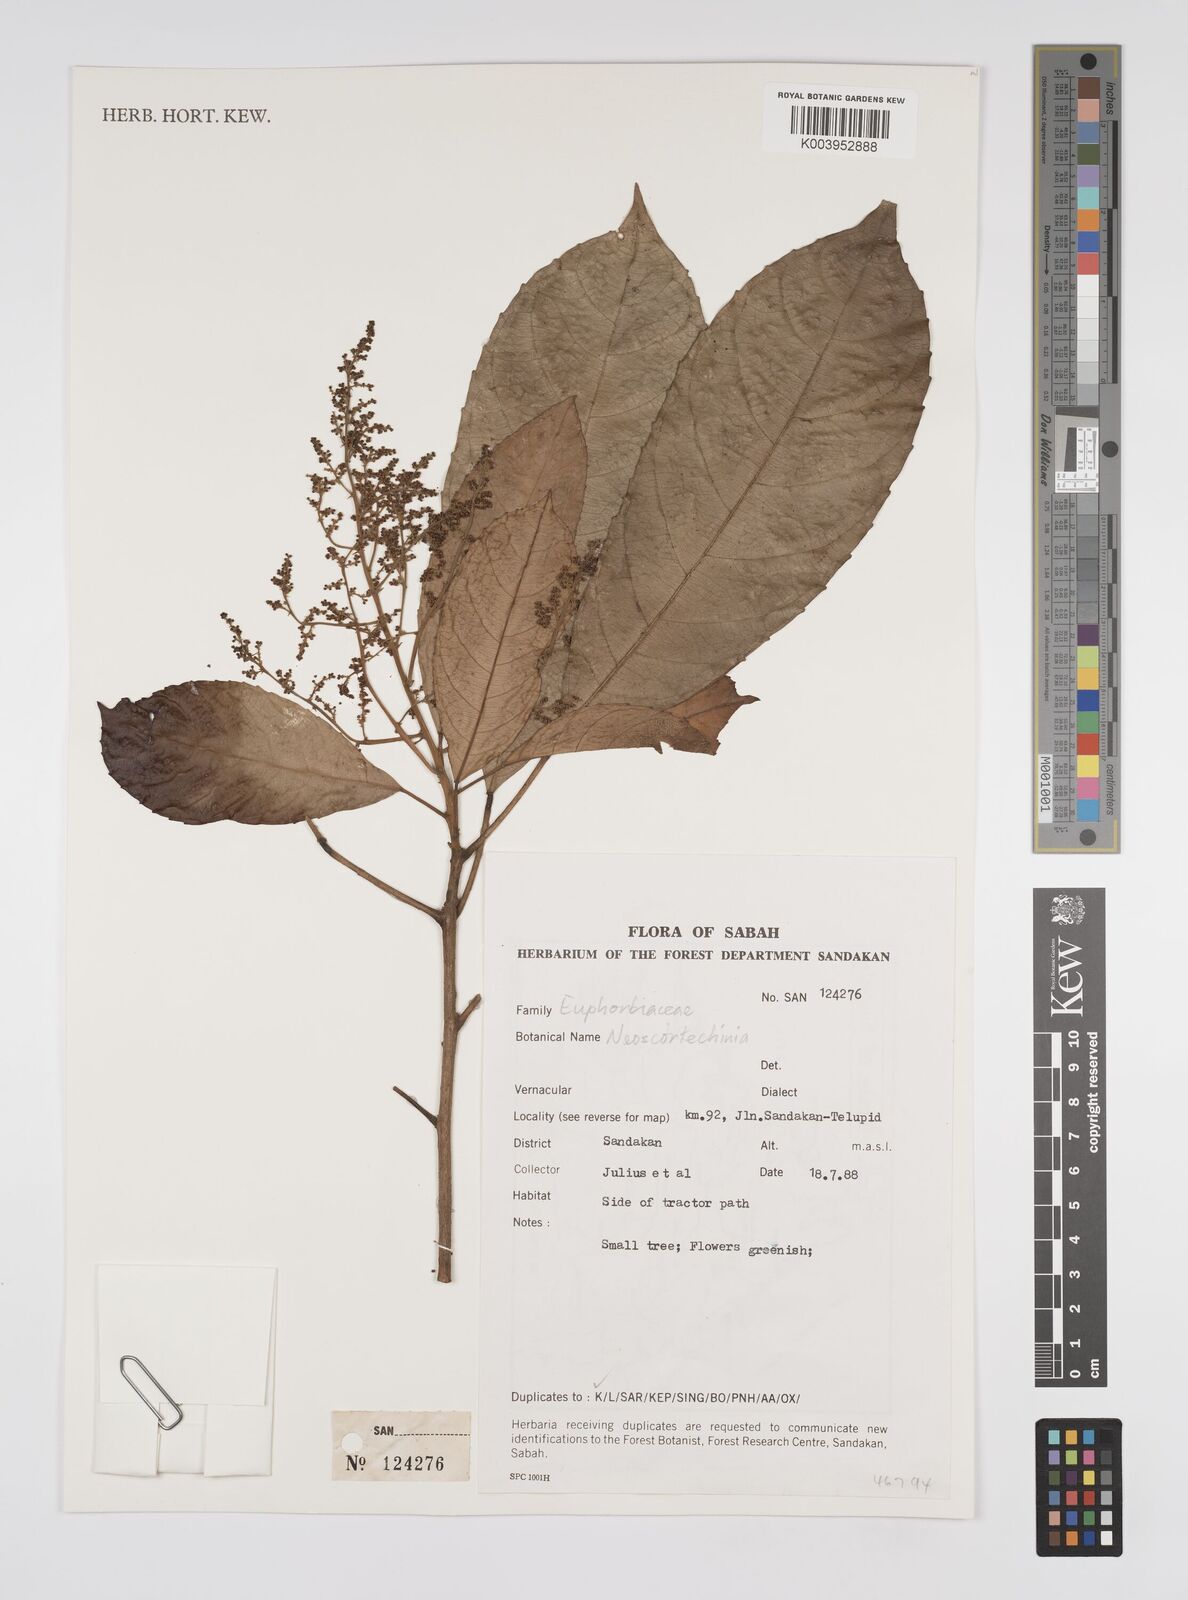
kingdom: Plantae
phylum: Tracheophyta
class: Magnoliopsida
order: Malpighiales
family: Euphorbiaceae
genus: Neoscortechinia
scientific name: Neoscortechinia philippinensis
